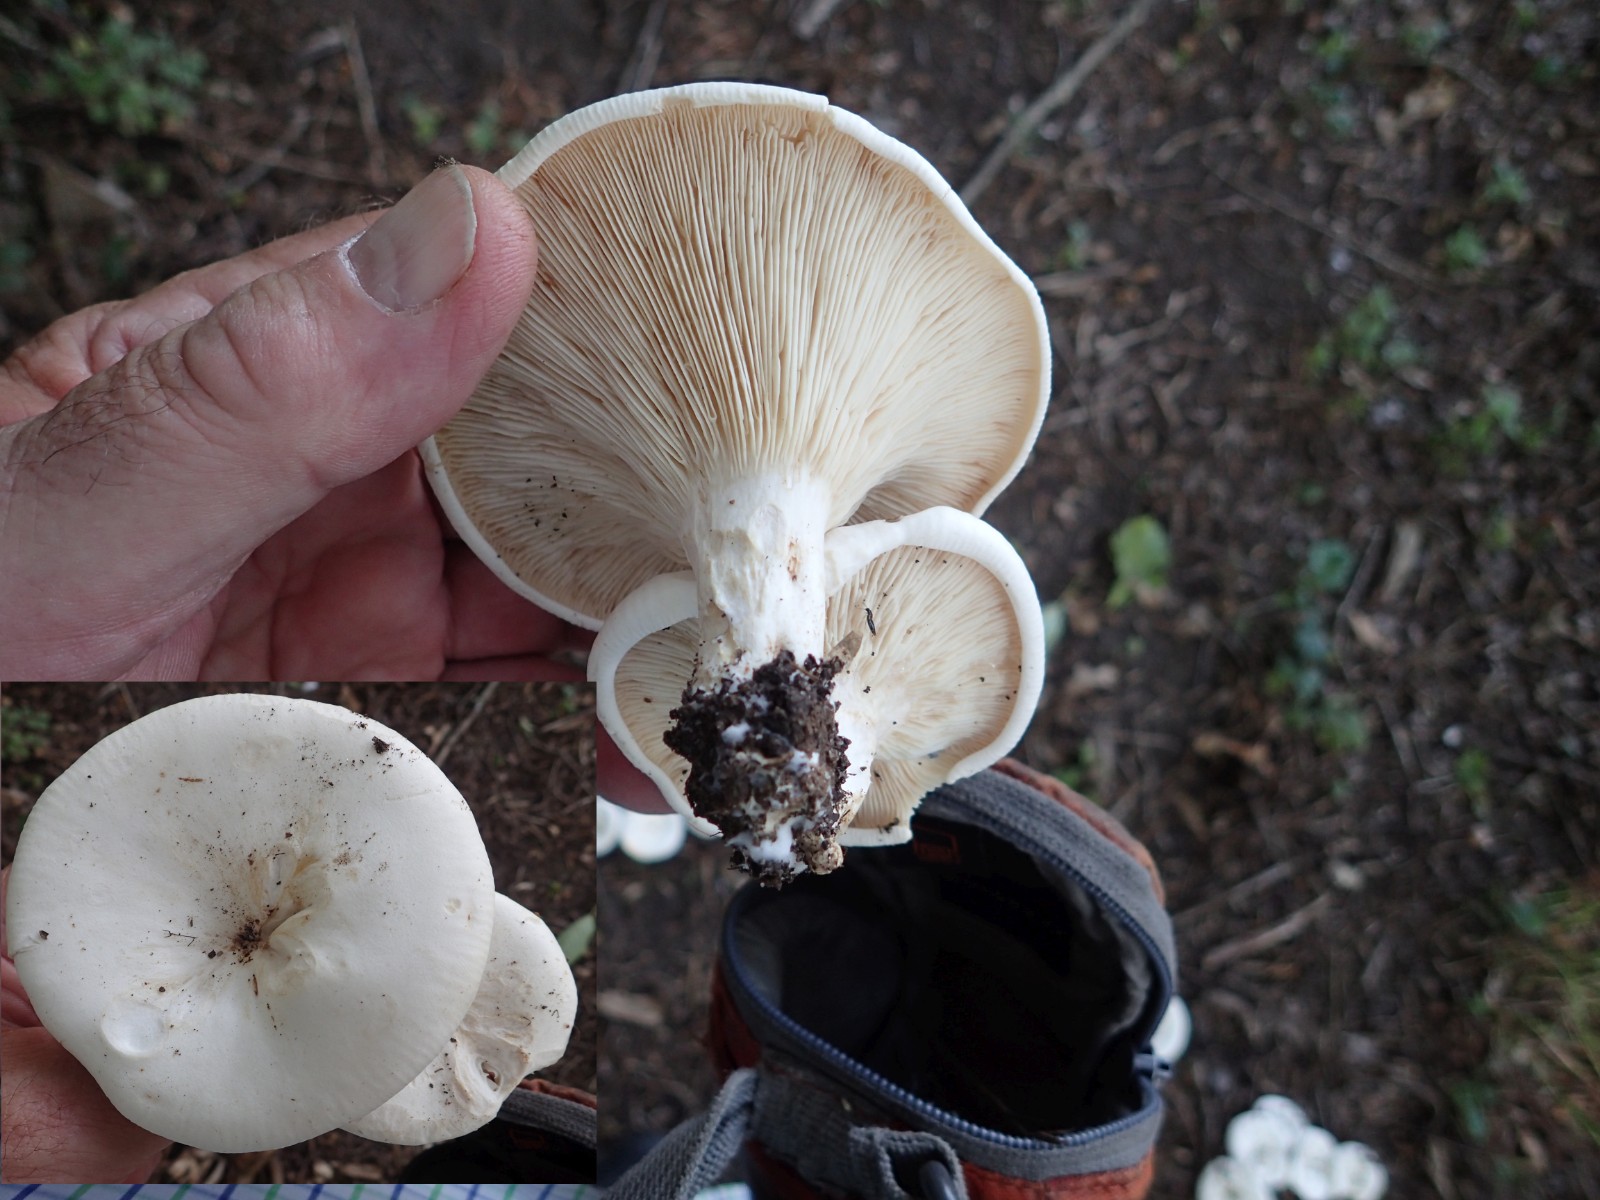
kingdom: Fungi
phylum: Basidiomycota
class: Agaricomycetes
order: Agaricales
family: Tricholomataceae
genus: Aspropaxillus
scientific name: Aspropaxillus giganteus
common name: kæmpe-tragtridderhat
